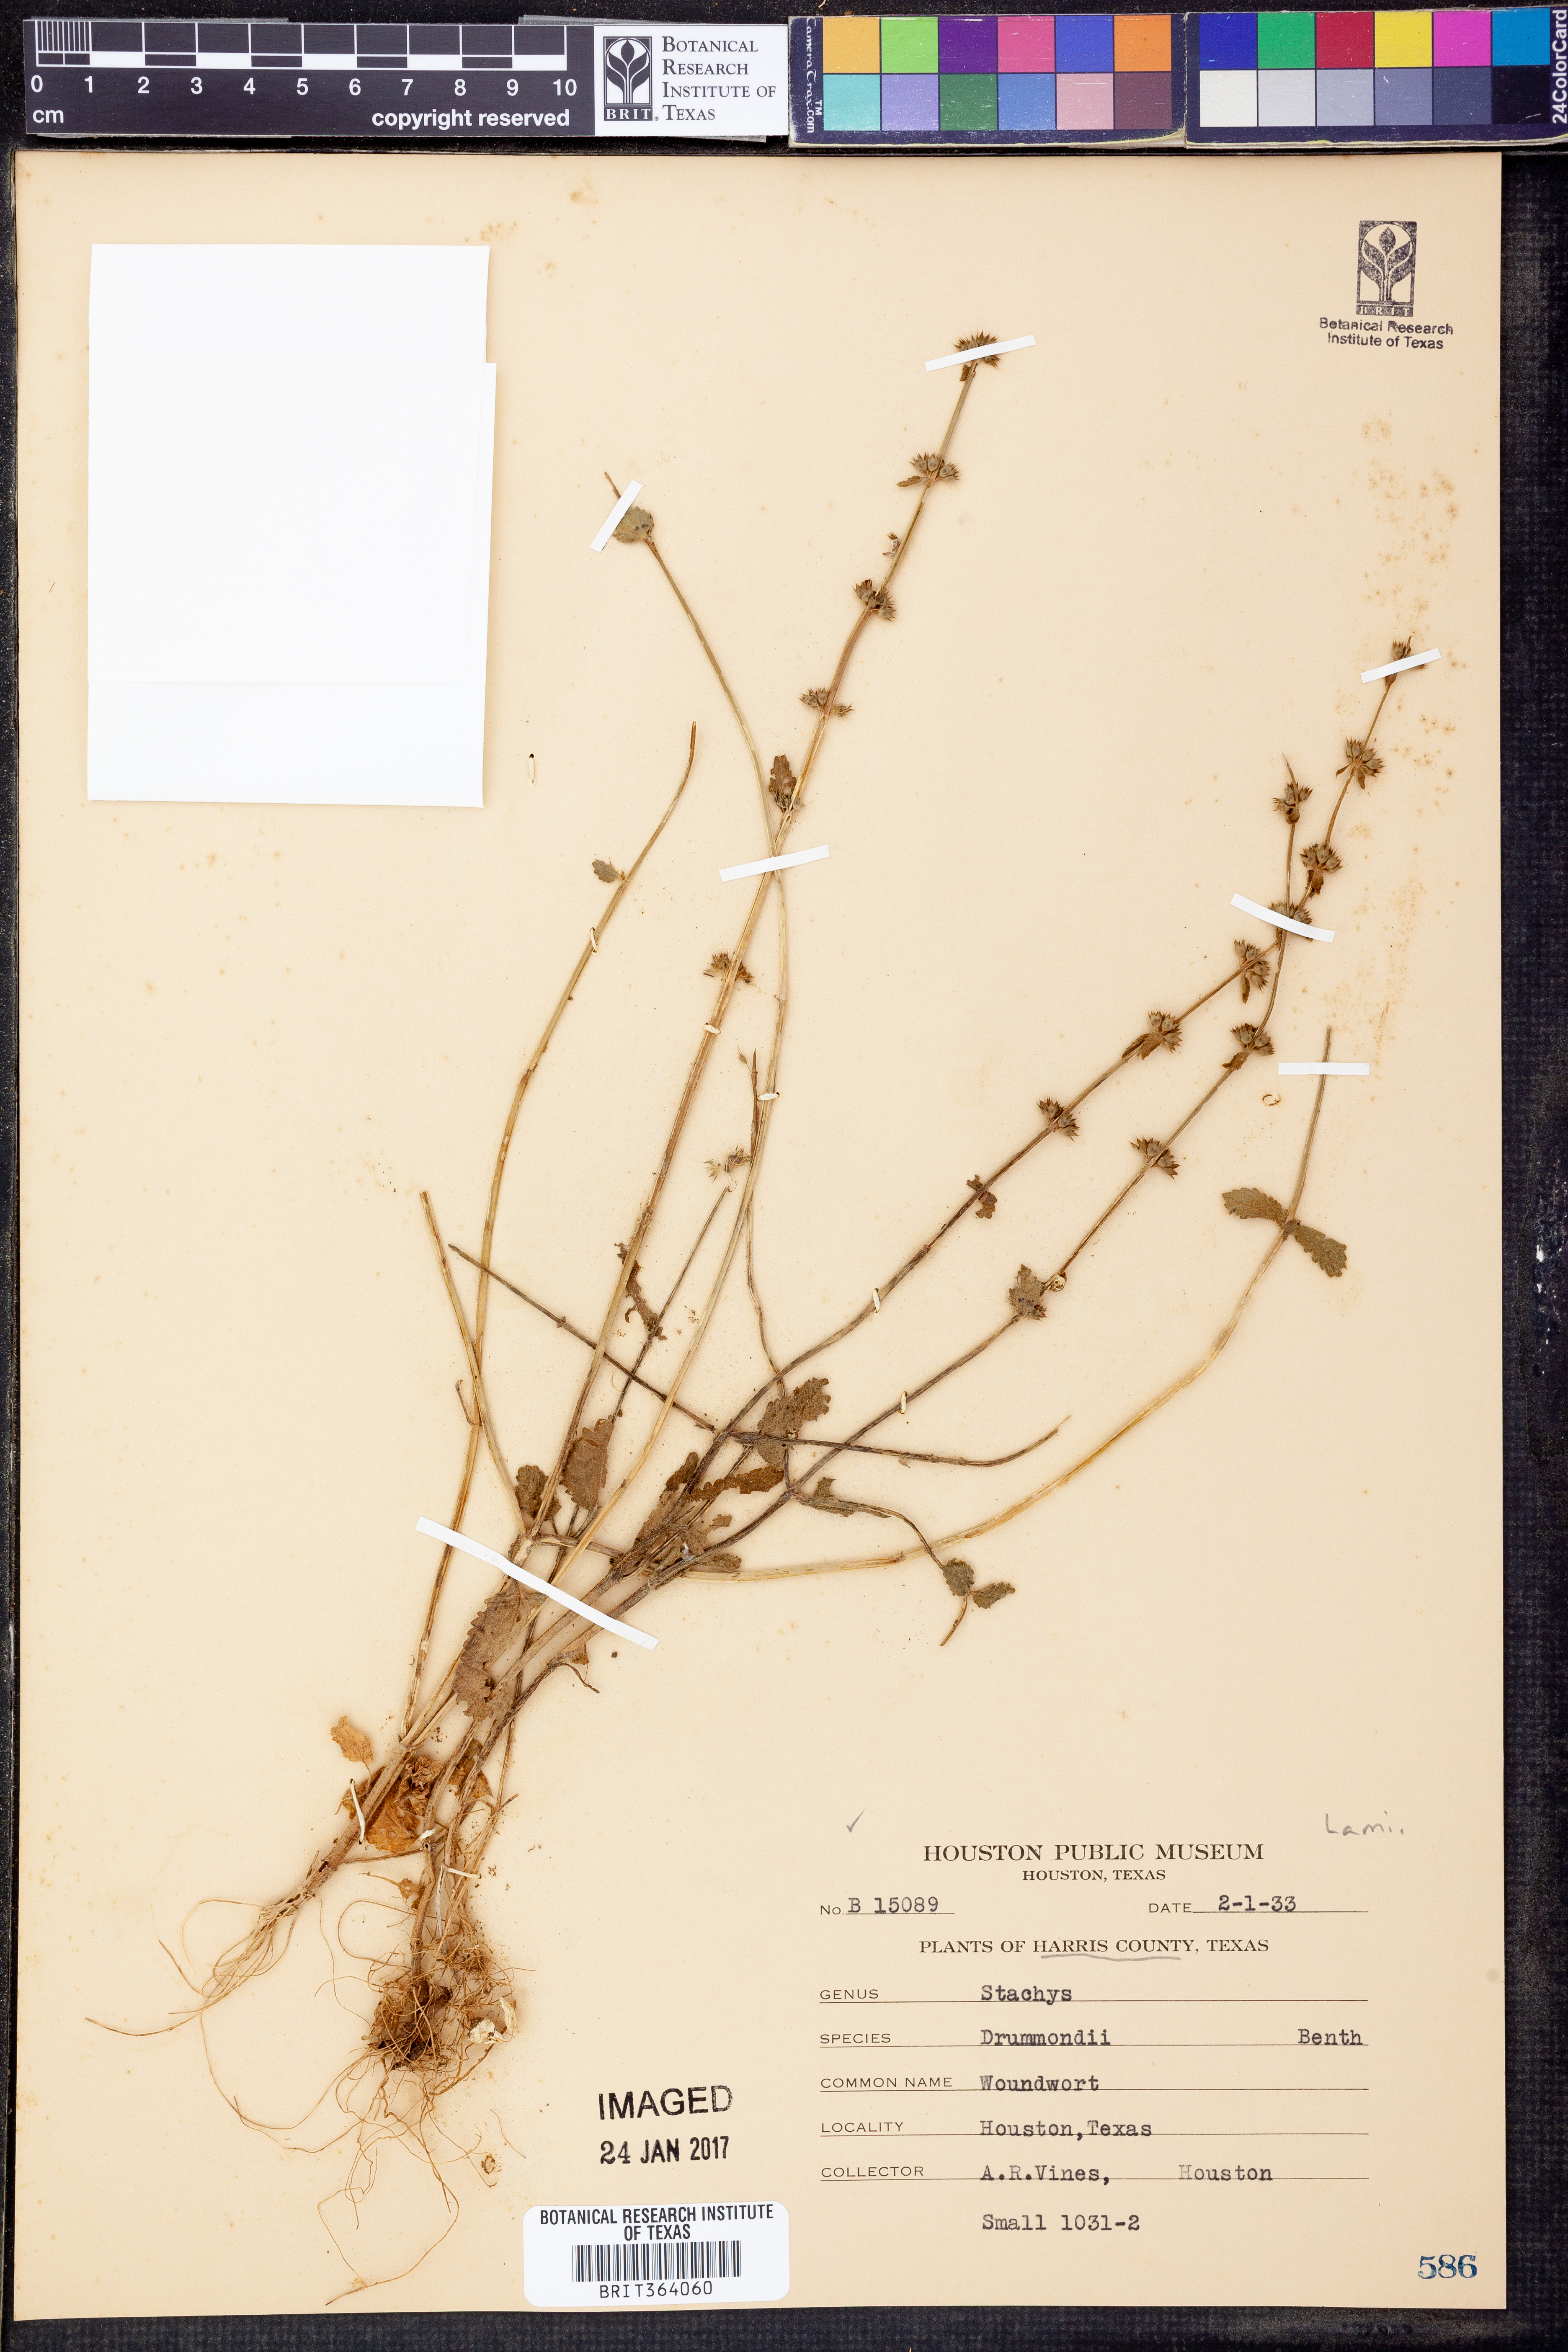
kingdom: Plantae
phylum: Tracheophyta
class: Magnoliopsida
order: Lamiales
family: Lamiaceae
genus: Stachys
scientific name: Stachys drummondii
